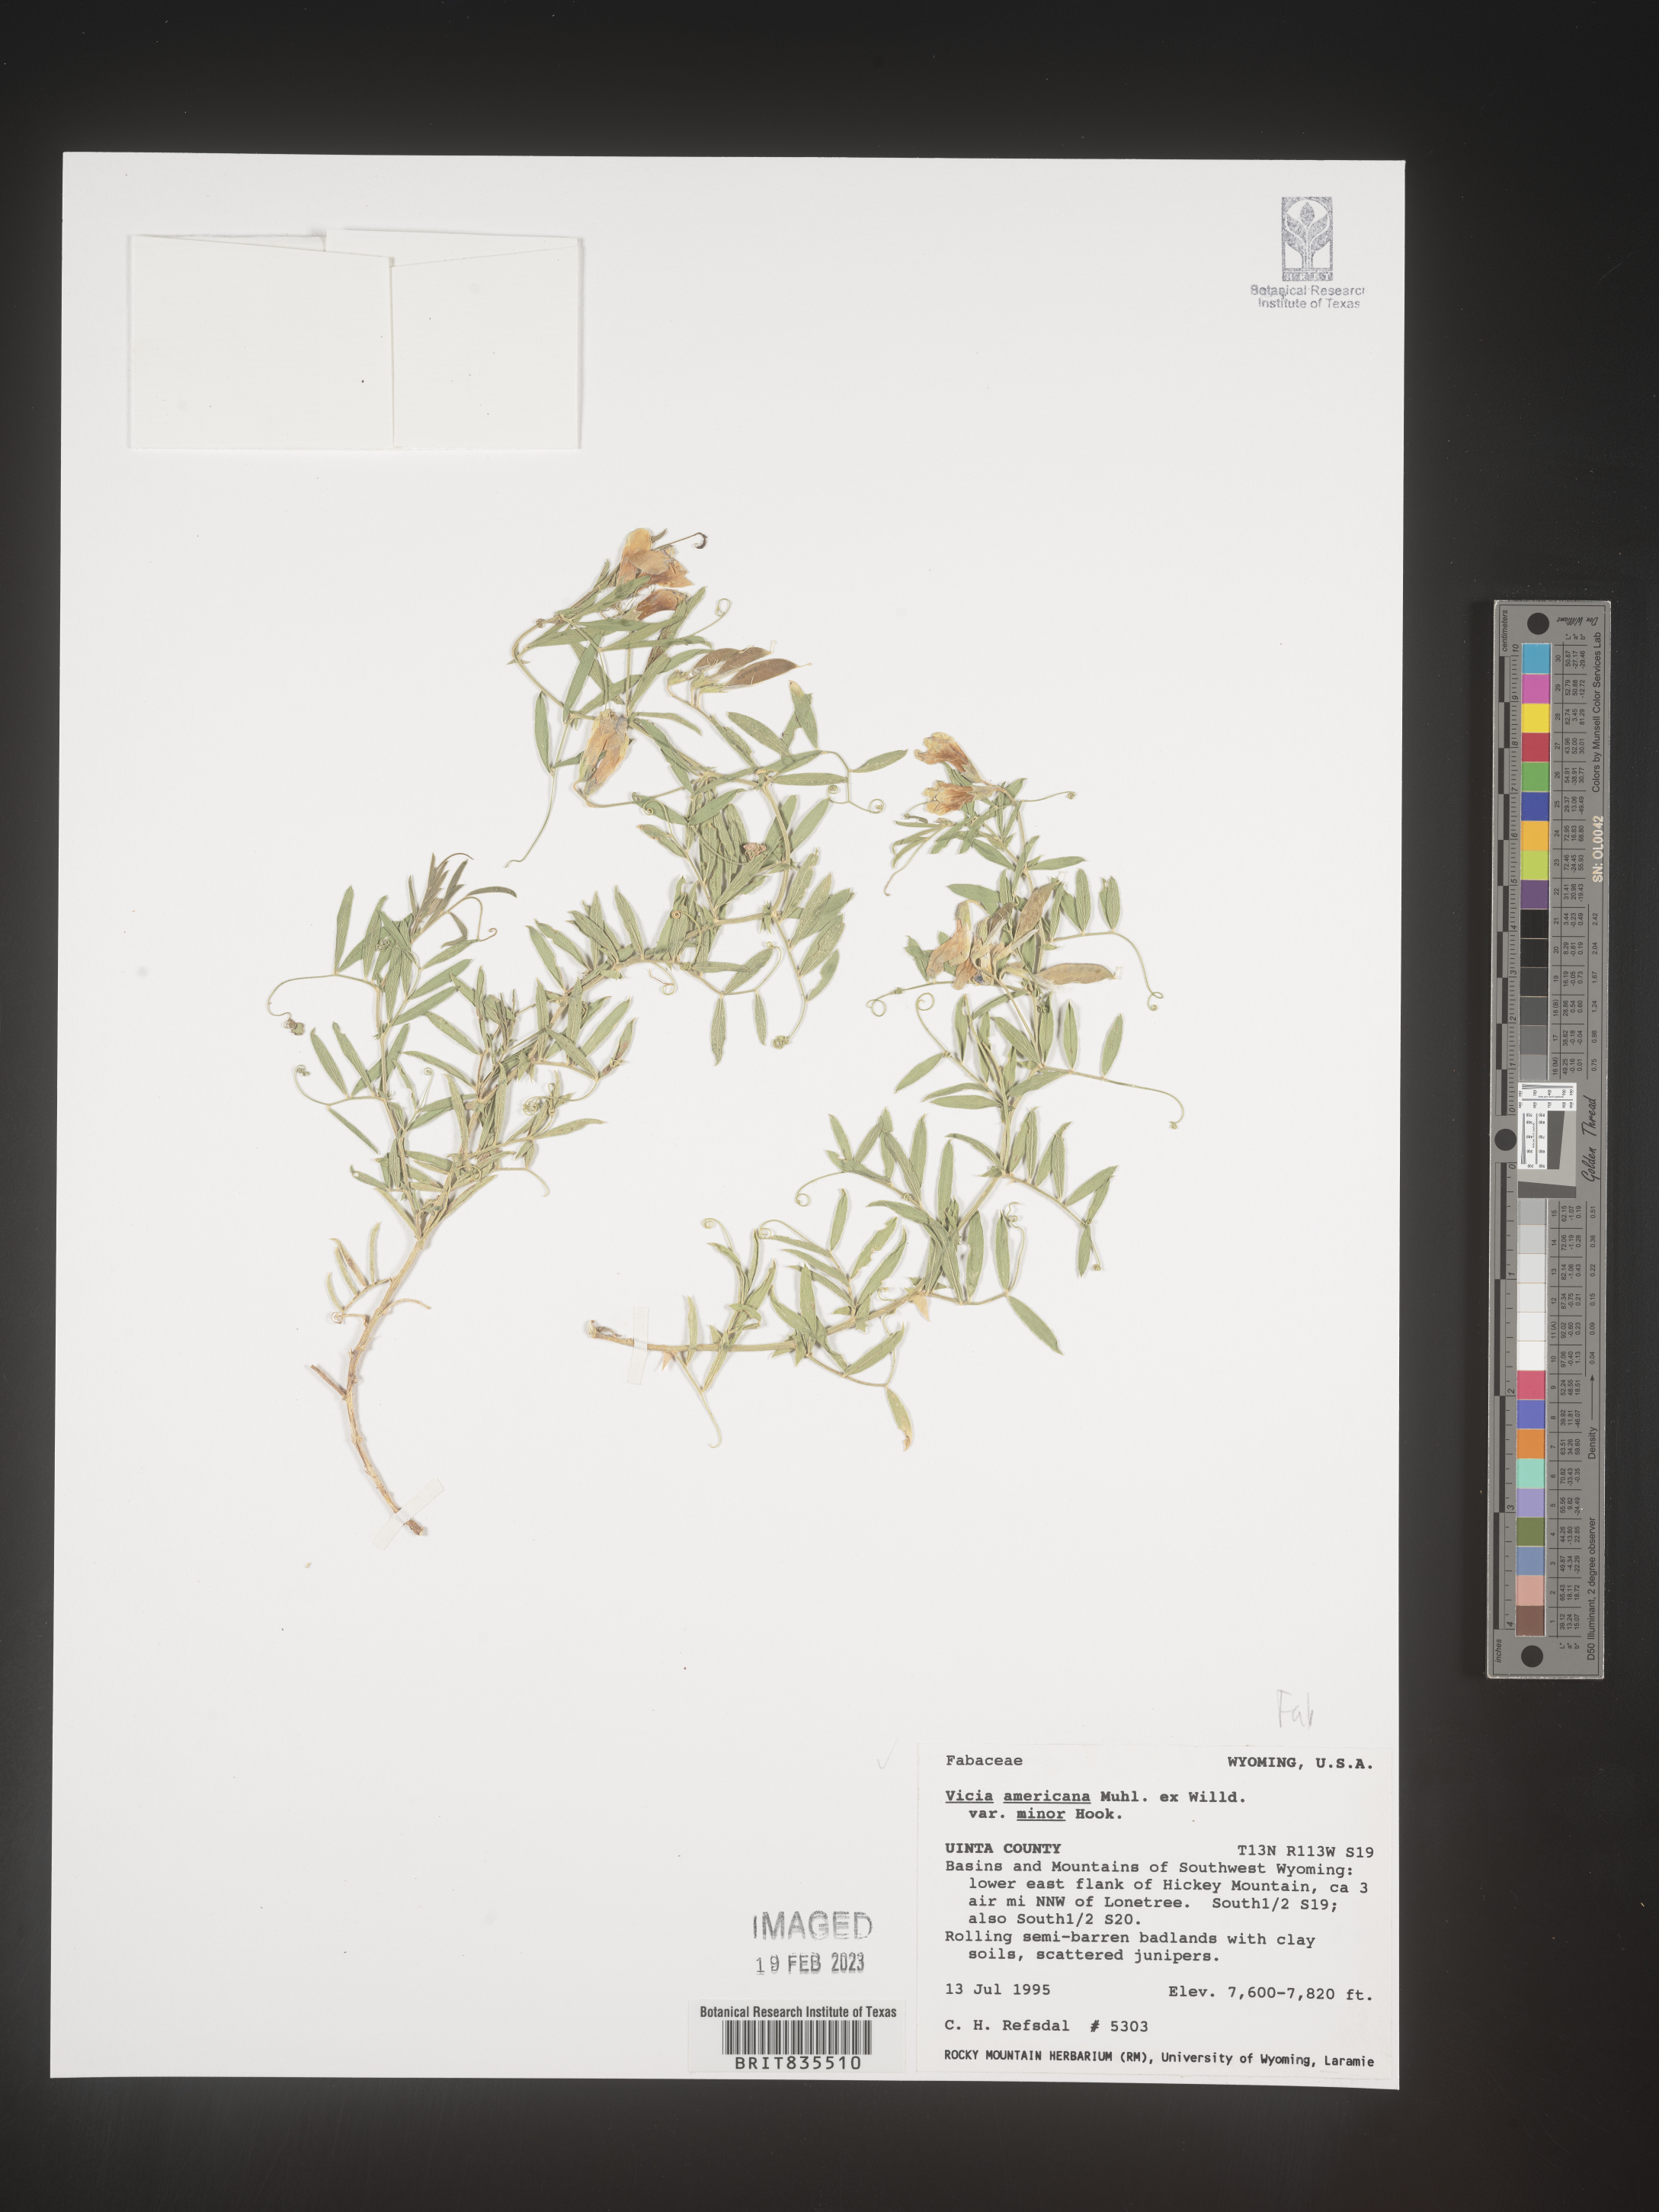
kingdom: Plantae
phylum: Tracheophyta
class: Magnoliopsida
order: Fabales
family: Fabaceae
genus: Vicia
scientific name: Vicia americana
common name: American vetch
